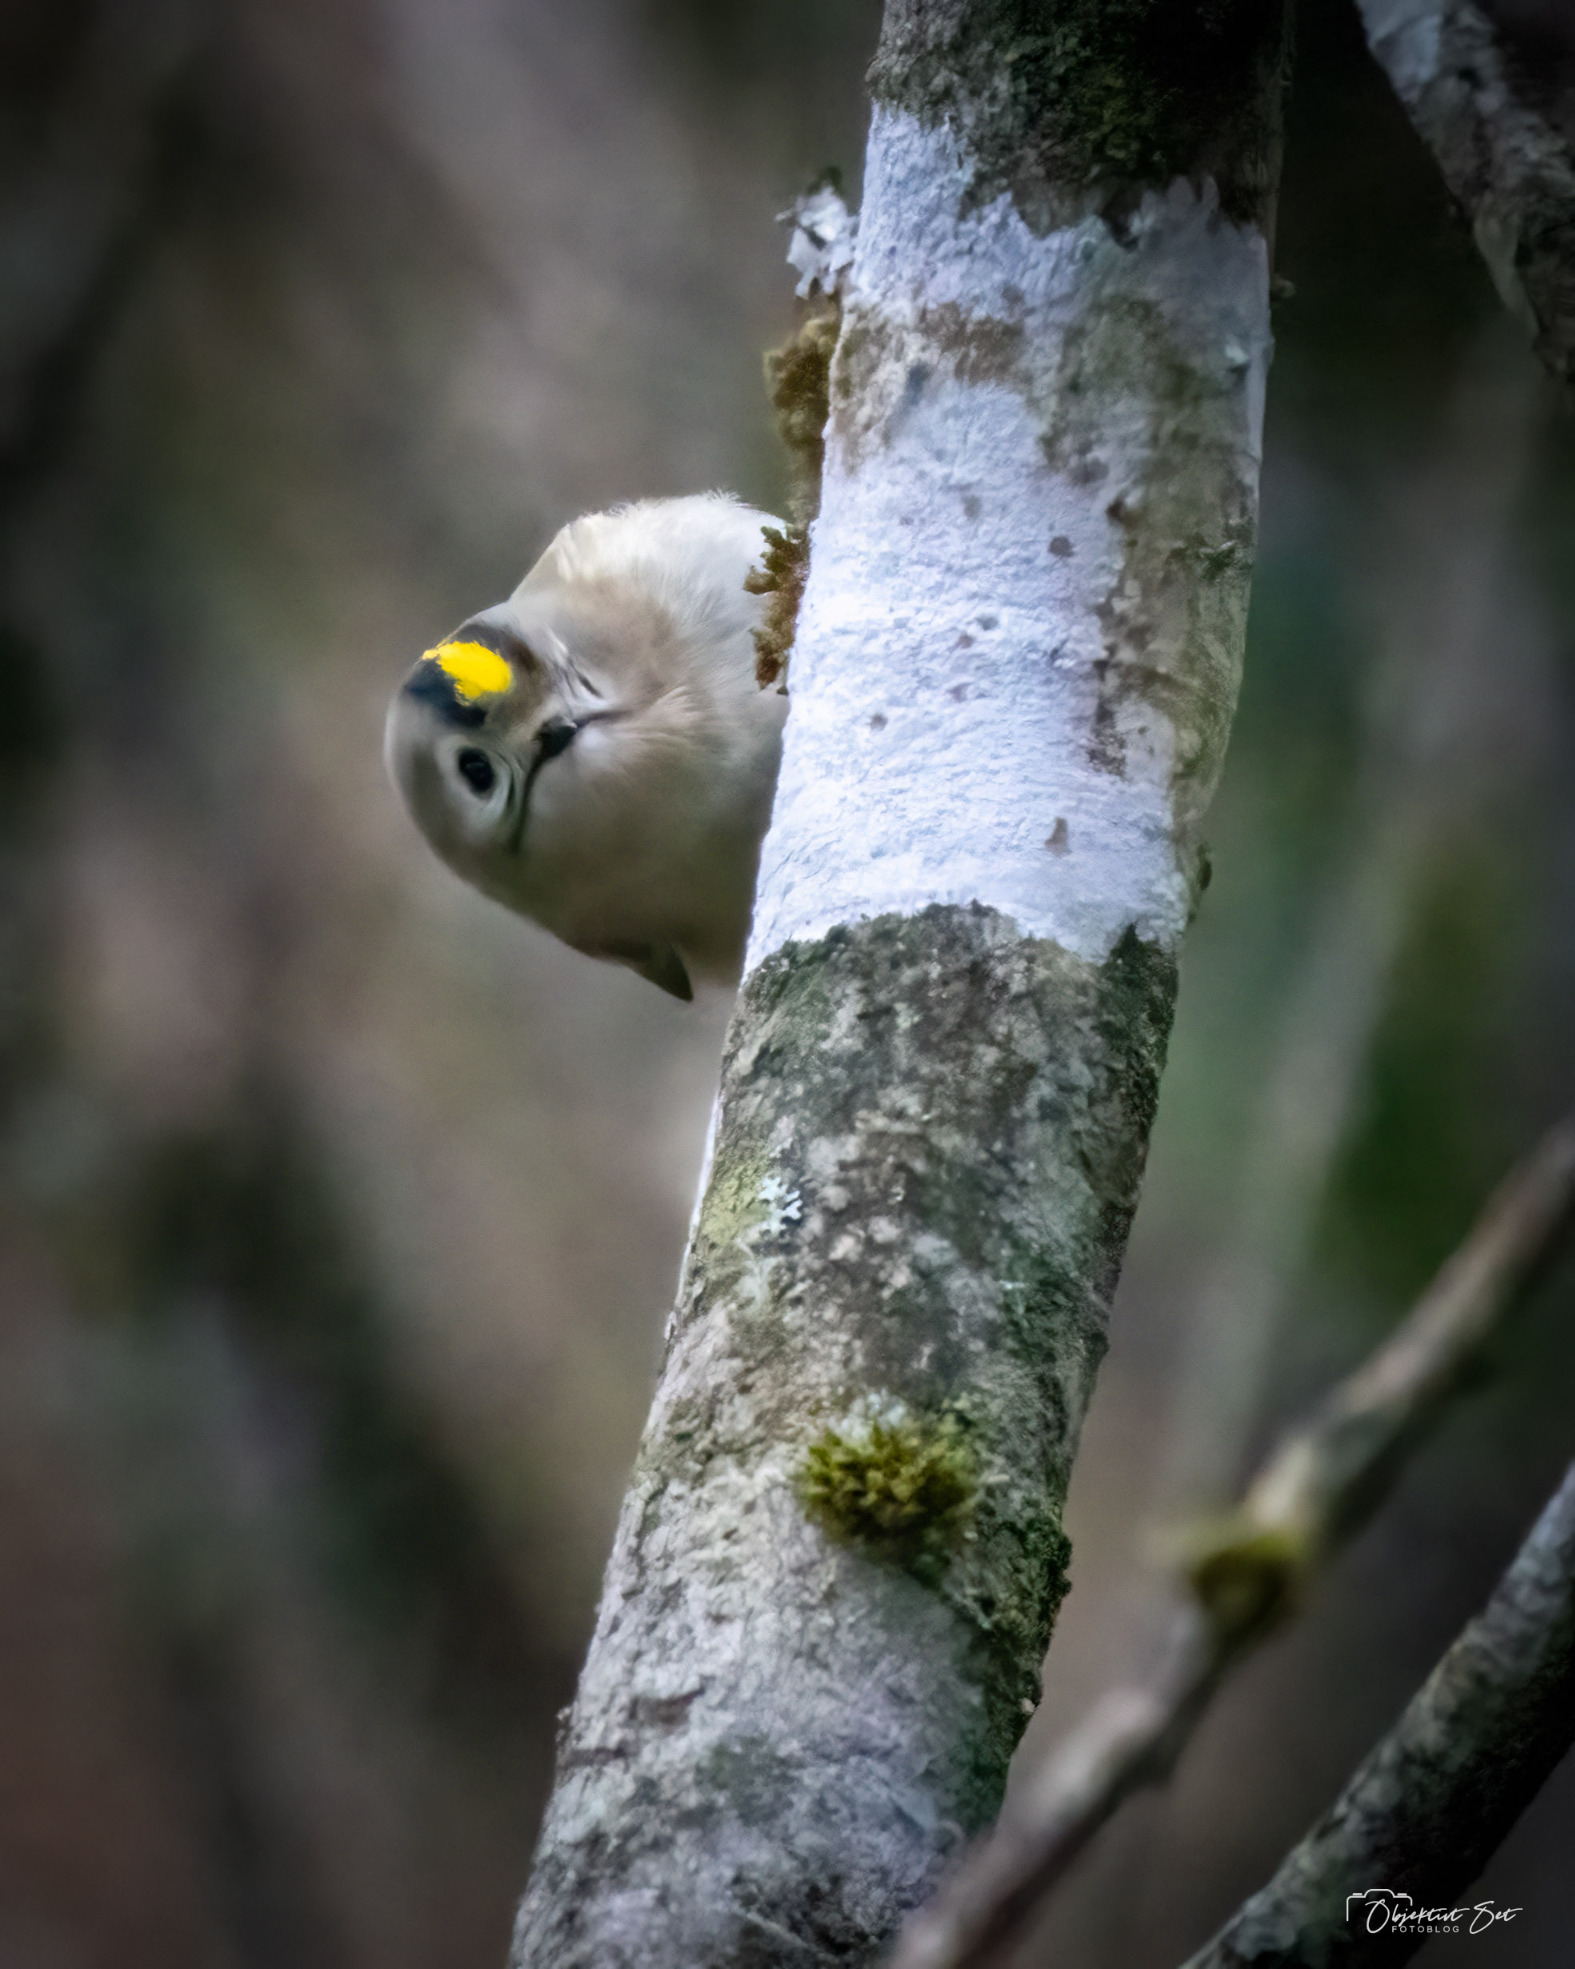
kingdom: Animalia
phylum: Chordata
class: Aves
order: Passeriformes
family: Regulidae
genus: Regulus
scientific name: Regulus regulus
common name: Fuglekonge
